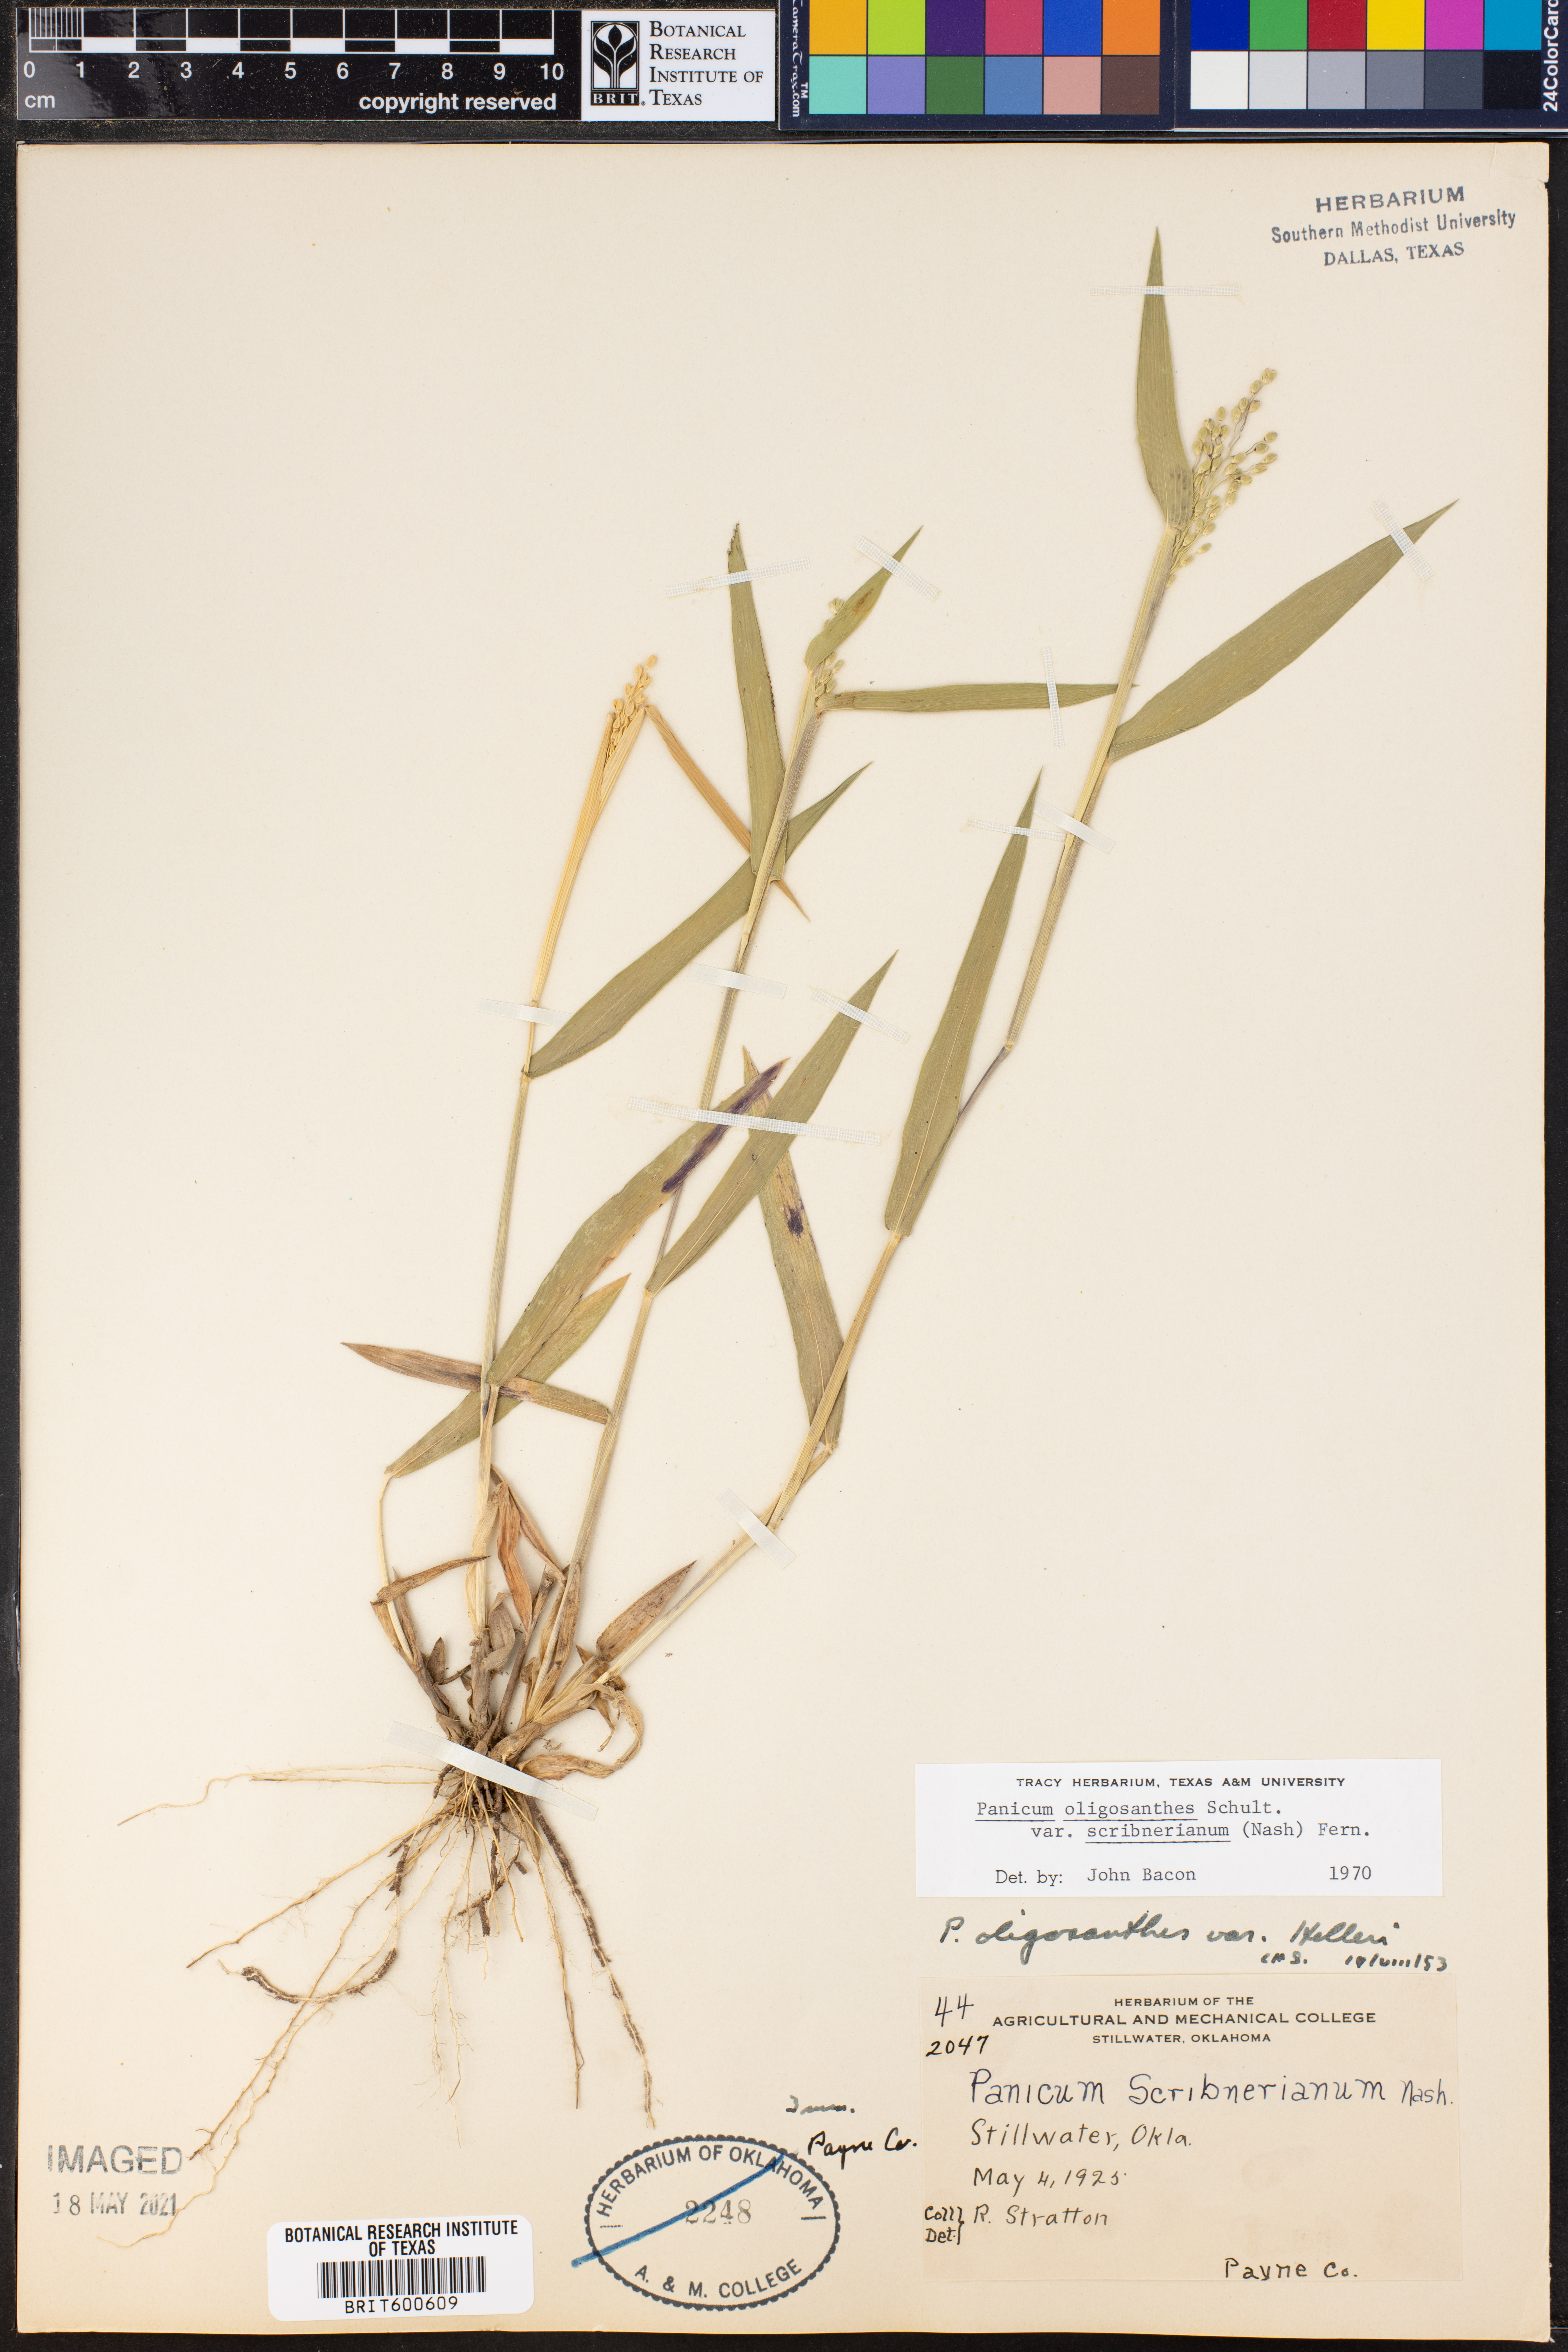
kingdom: Plantae
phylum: Tracheophyta
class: Liliopsida
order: Poales
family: Poaceae
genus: Dichanthelium
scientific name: Dichanthelium scribnerianum
